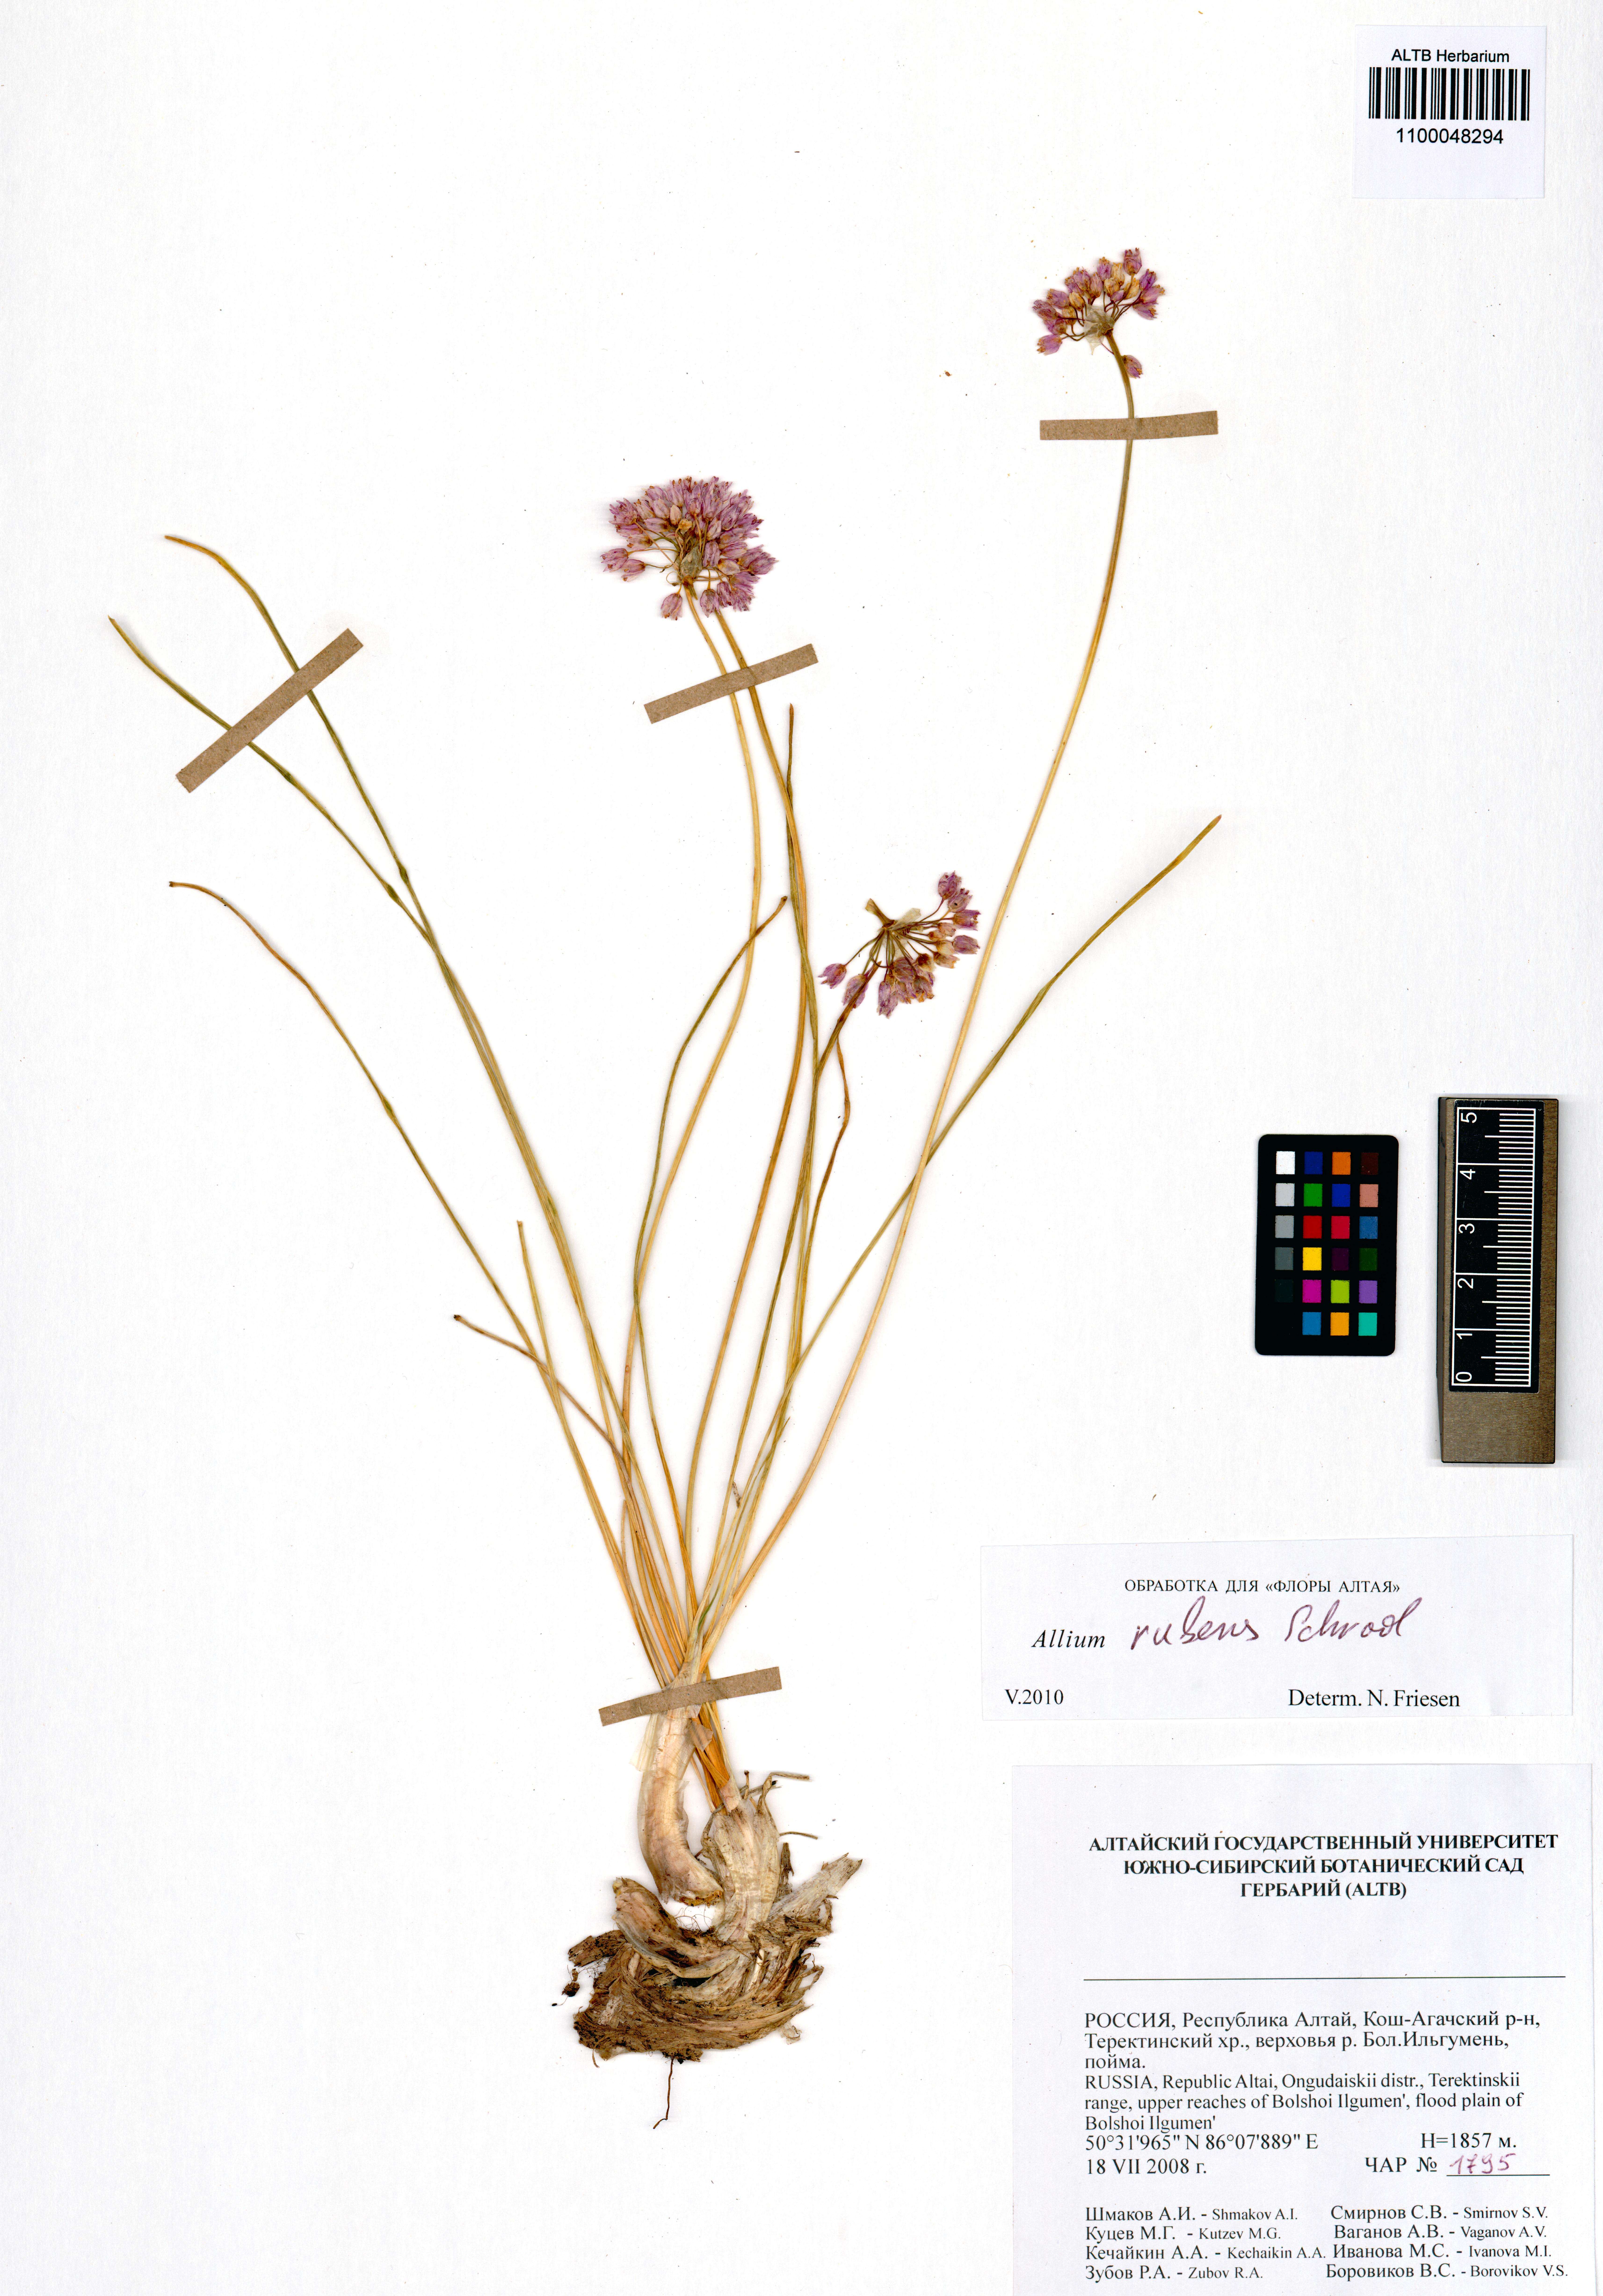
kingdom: Plantae
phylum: Tracheophyta
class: Liliopsida
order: Asparagales
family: Amaryllidaceae
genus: Allium
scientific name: Allium rubens
